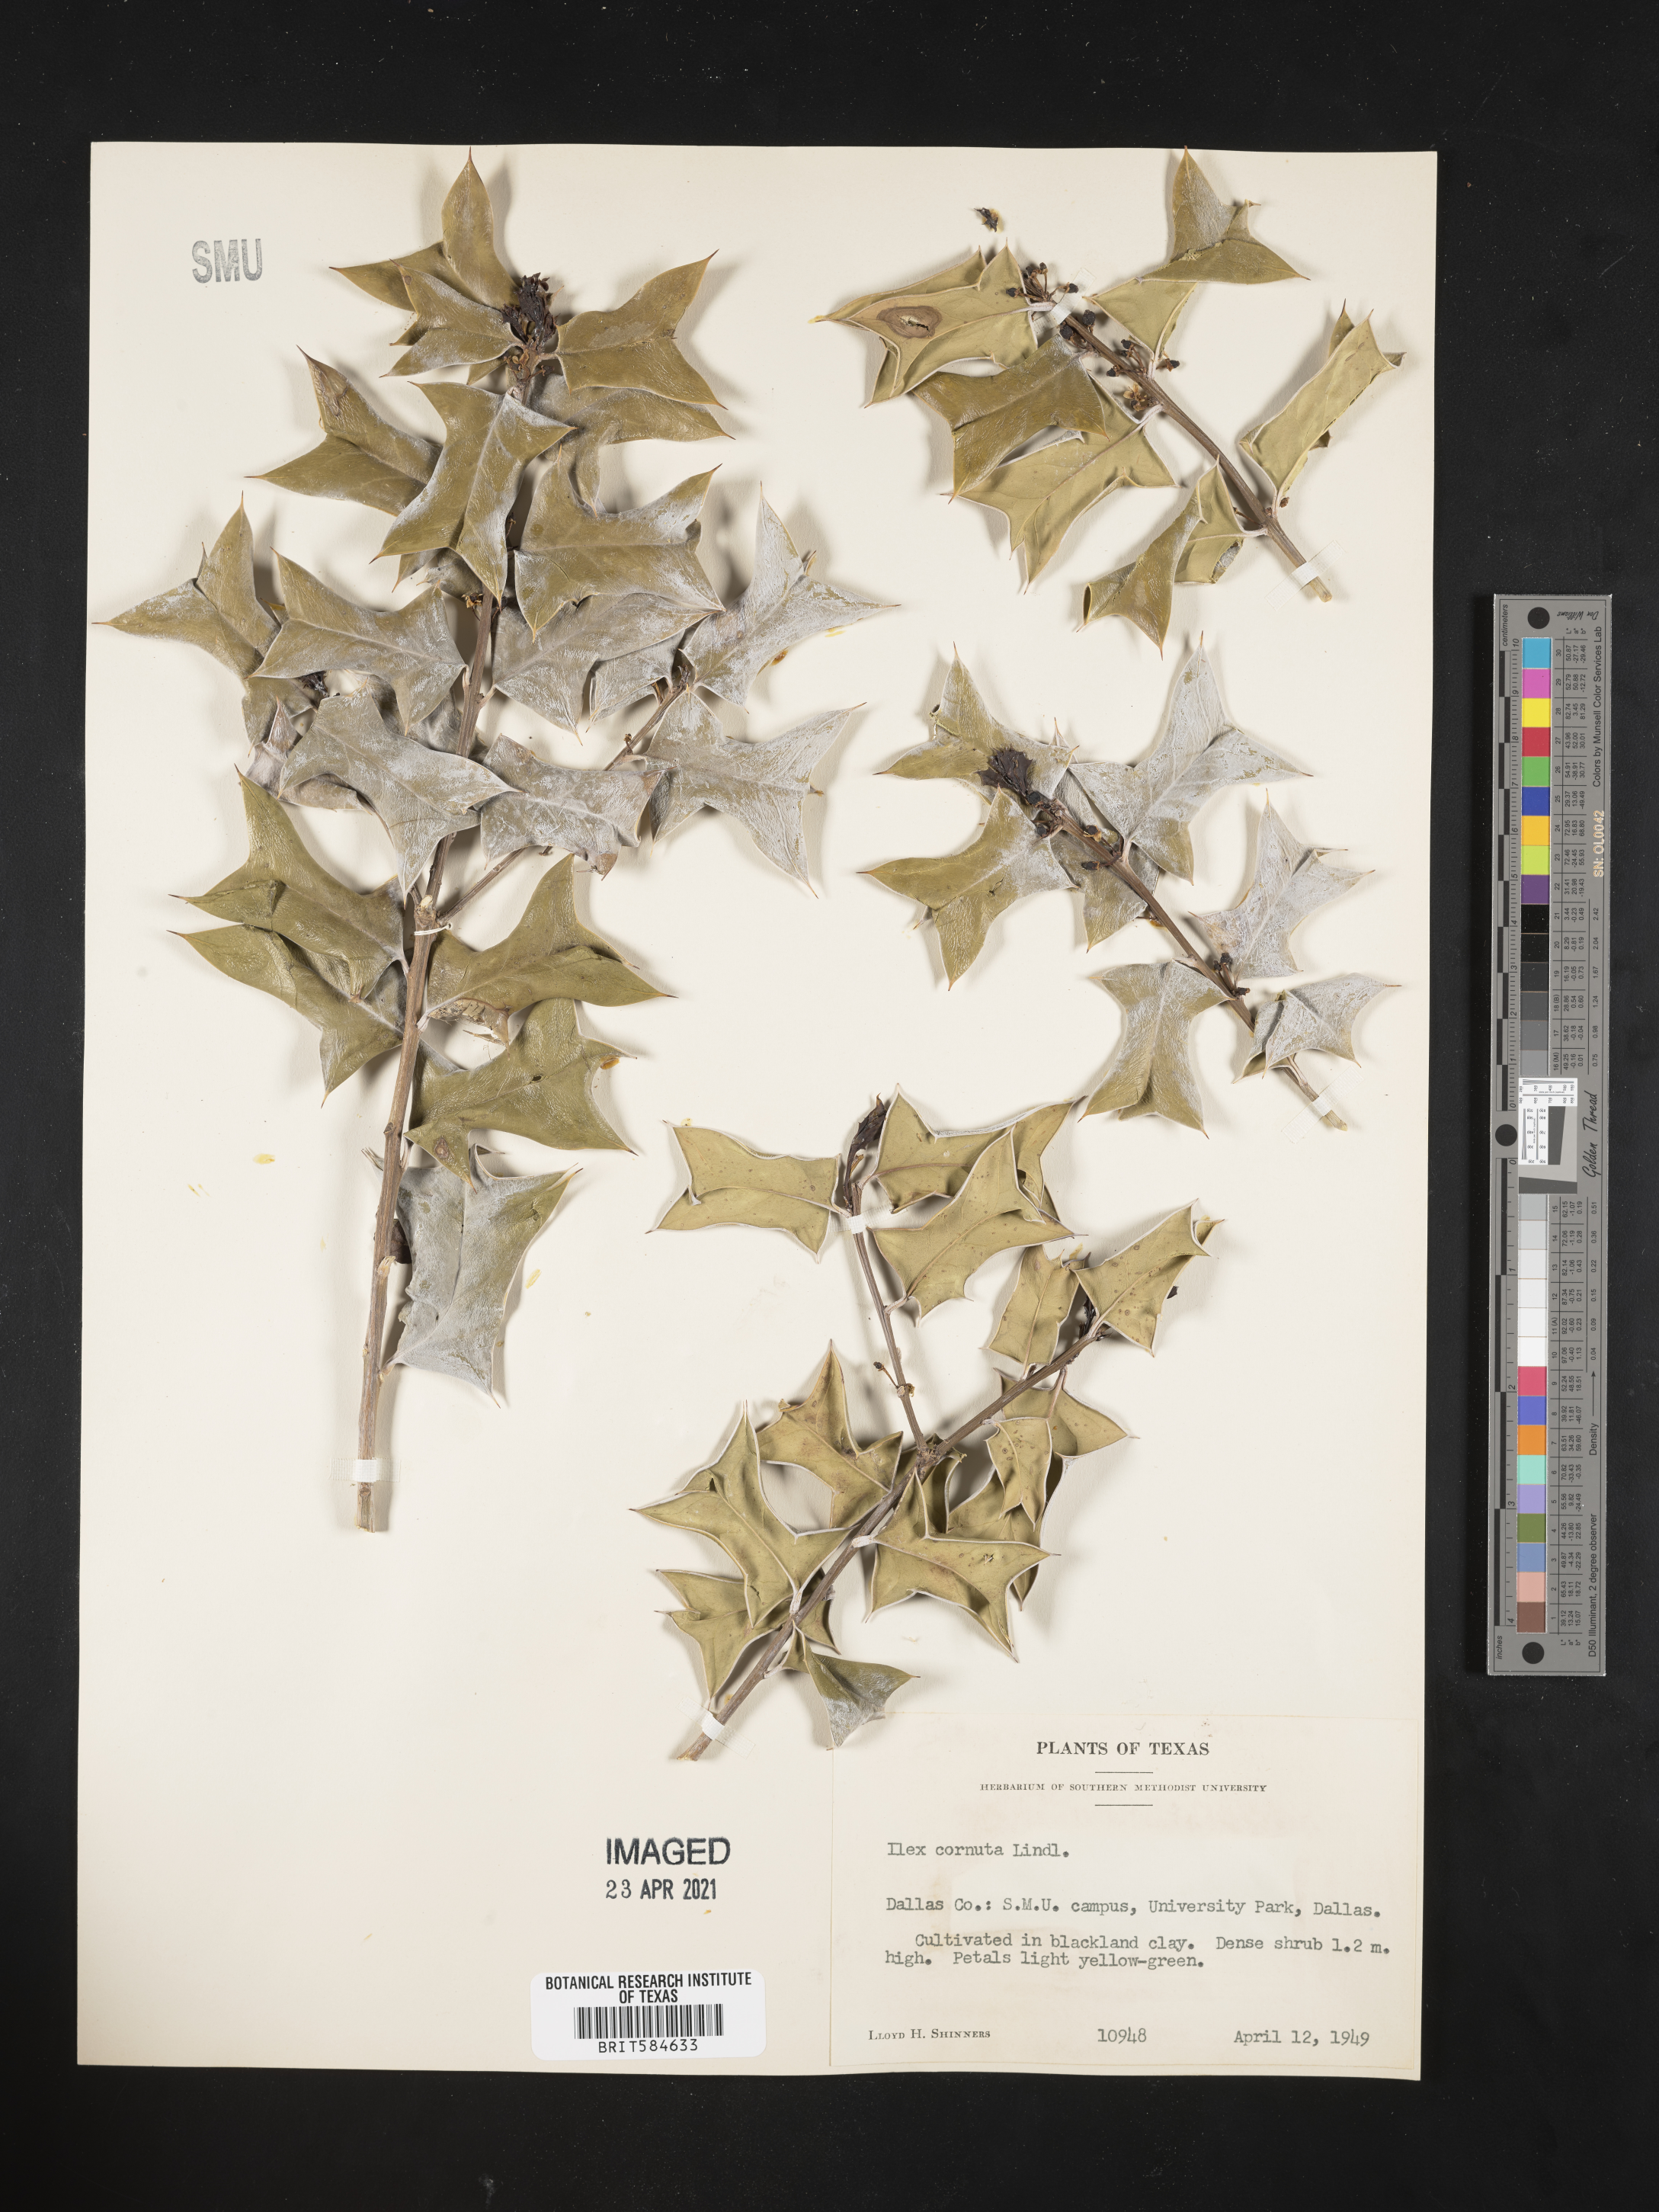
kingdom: Plantae
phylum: Tracheophyta
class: Magnoliopsida
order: Aquifoliales
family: Aquifoliaceae
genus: Ilex
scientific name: Ilex cornuta
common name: Chinese holly
